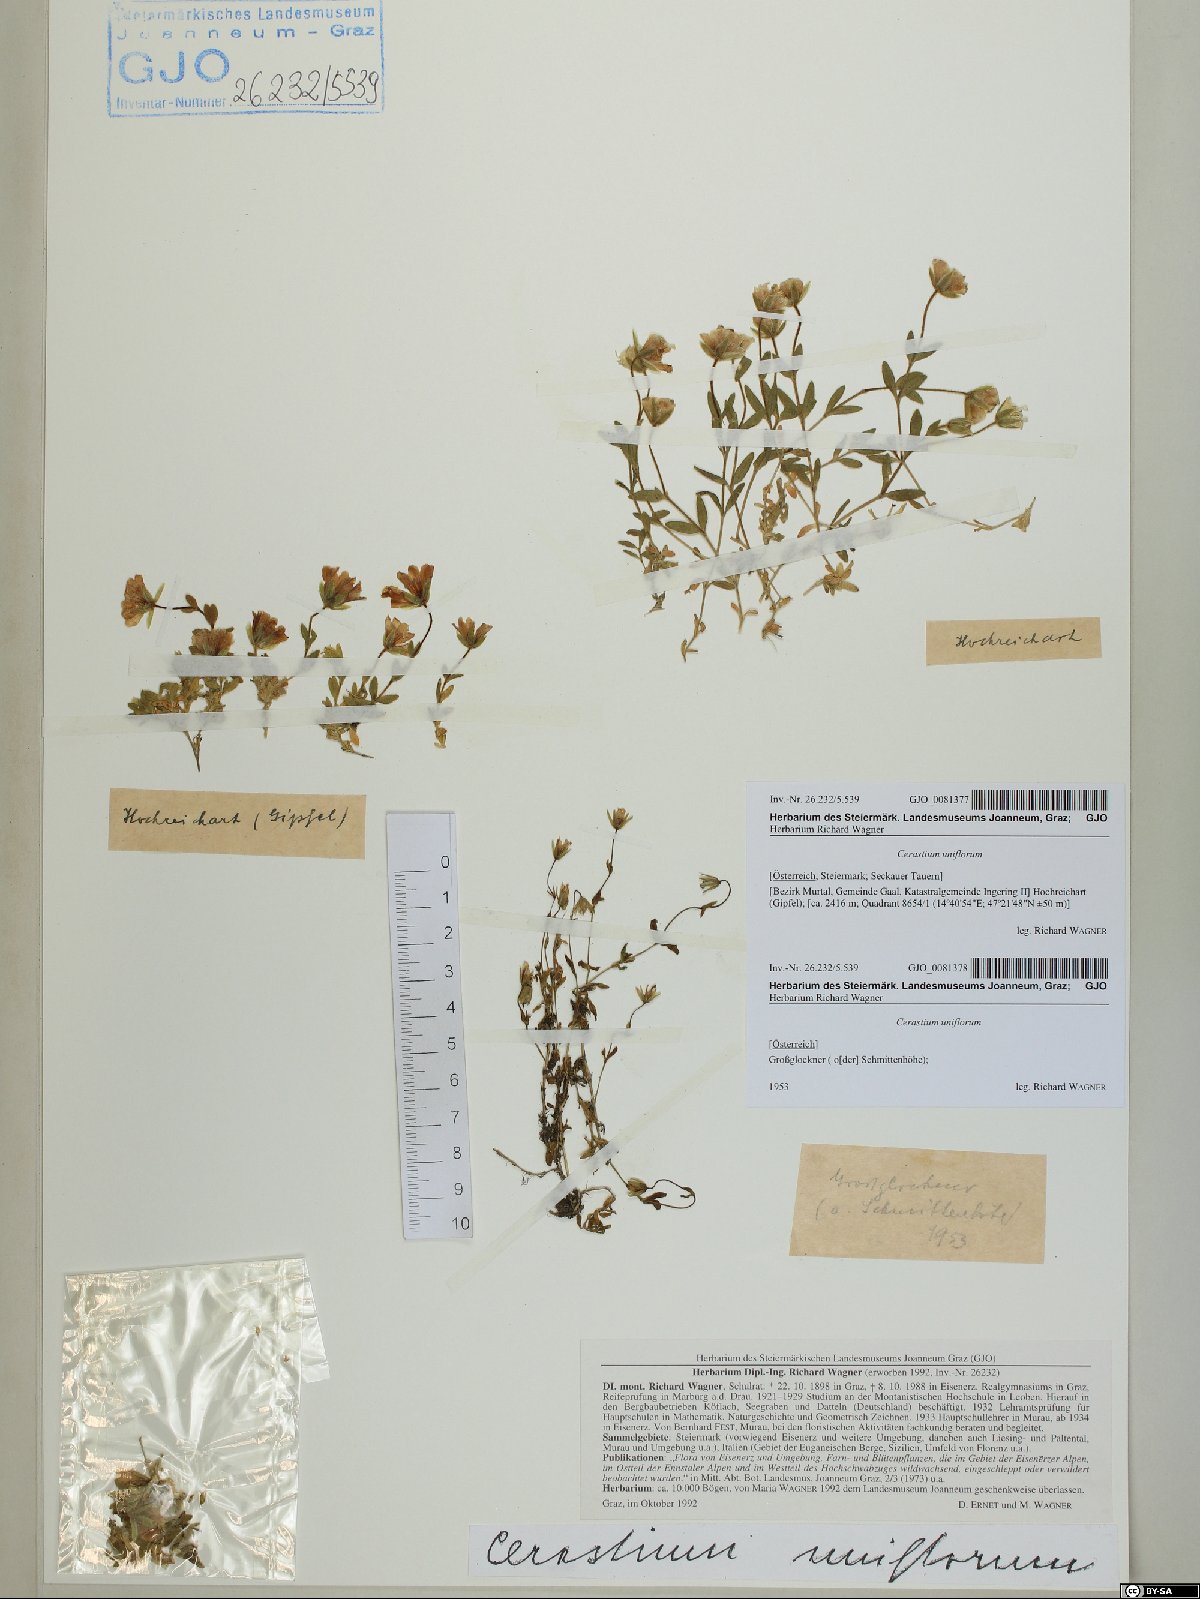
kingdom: Plantae
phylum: Tracheophyta
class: Magnoliopsida
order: Caryophyllales
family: Caryophyllaceae
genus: Cerastium
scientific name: Cerastium uniflorum
